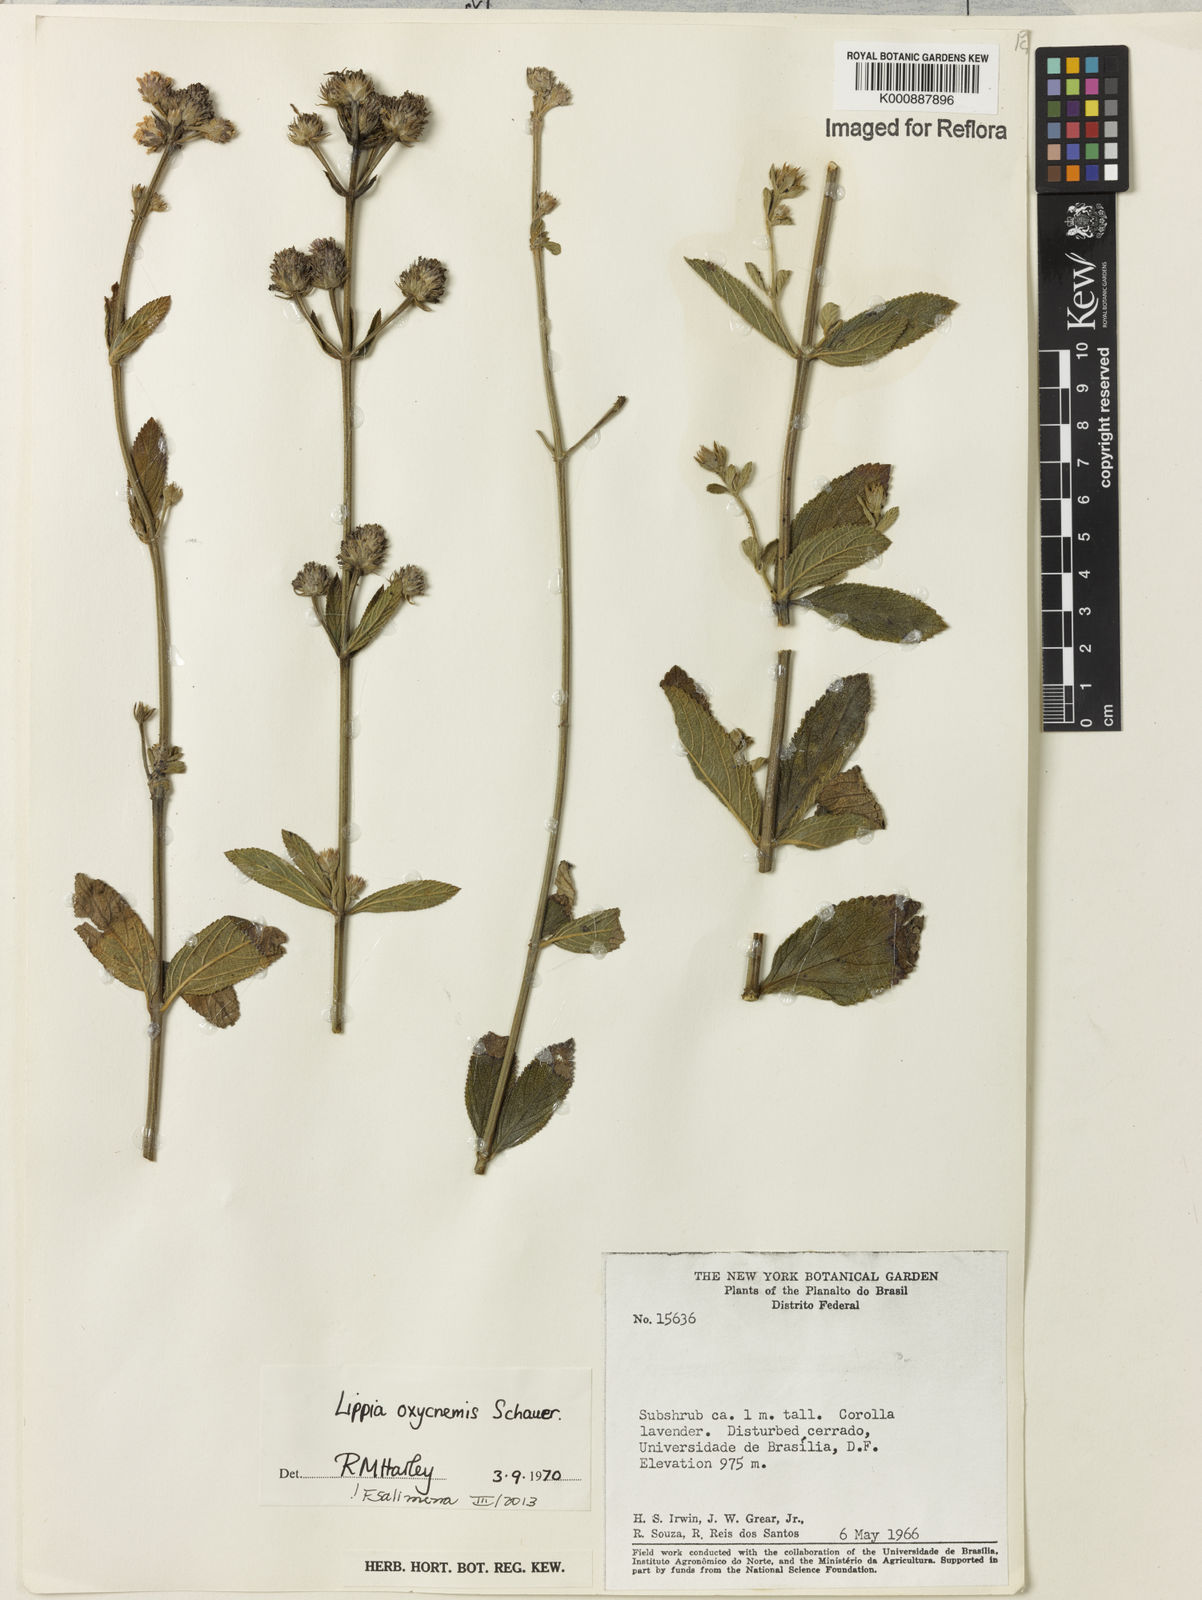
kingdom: Plantae
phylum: Tracheophyta
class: Magnoliopsida
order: Lamiales
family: Verbenaceae
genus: Lippia
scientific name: Lippia oxycnemis
